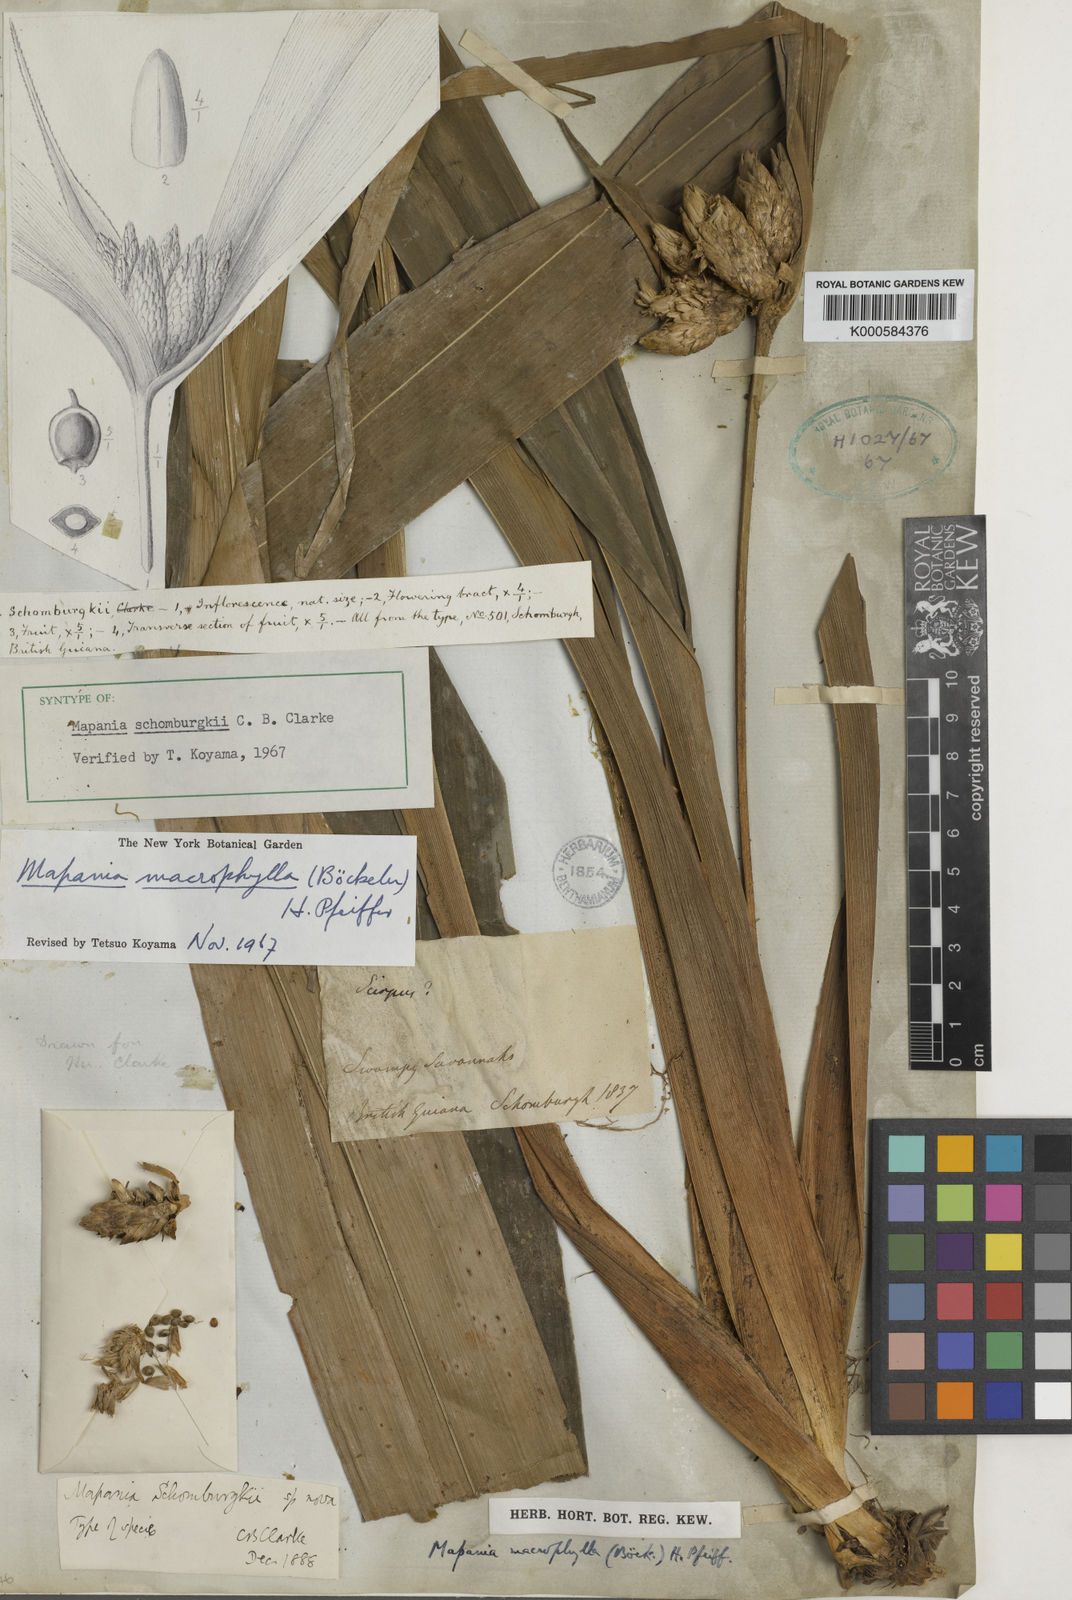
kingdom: Plantae
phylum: Tracheophyta
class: Liliopsida
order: Poales
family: Cyperaceae
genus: Mapania
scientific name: Mapania macrophylla
